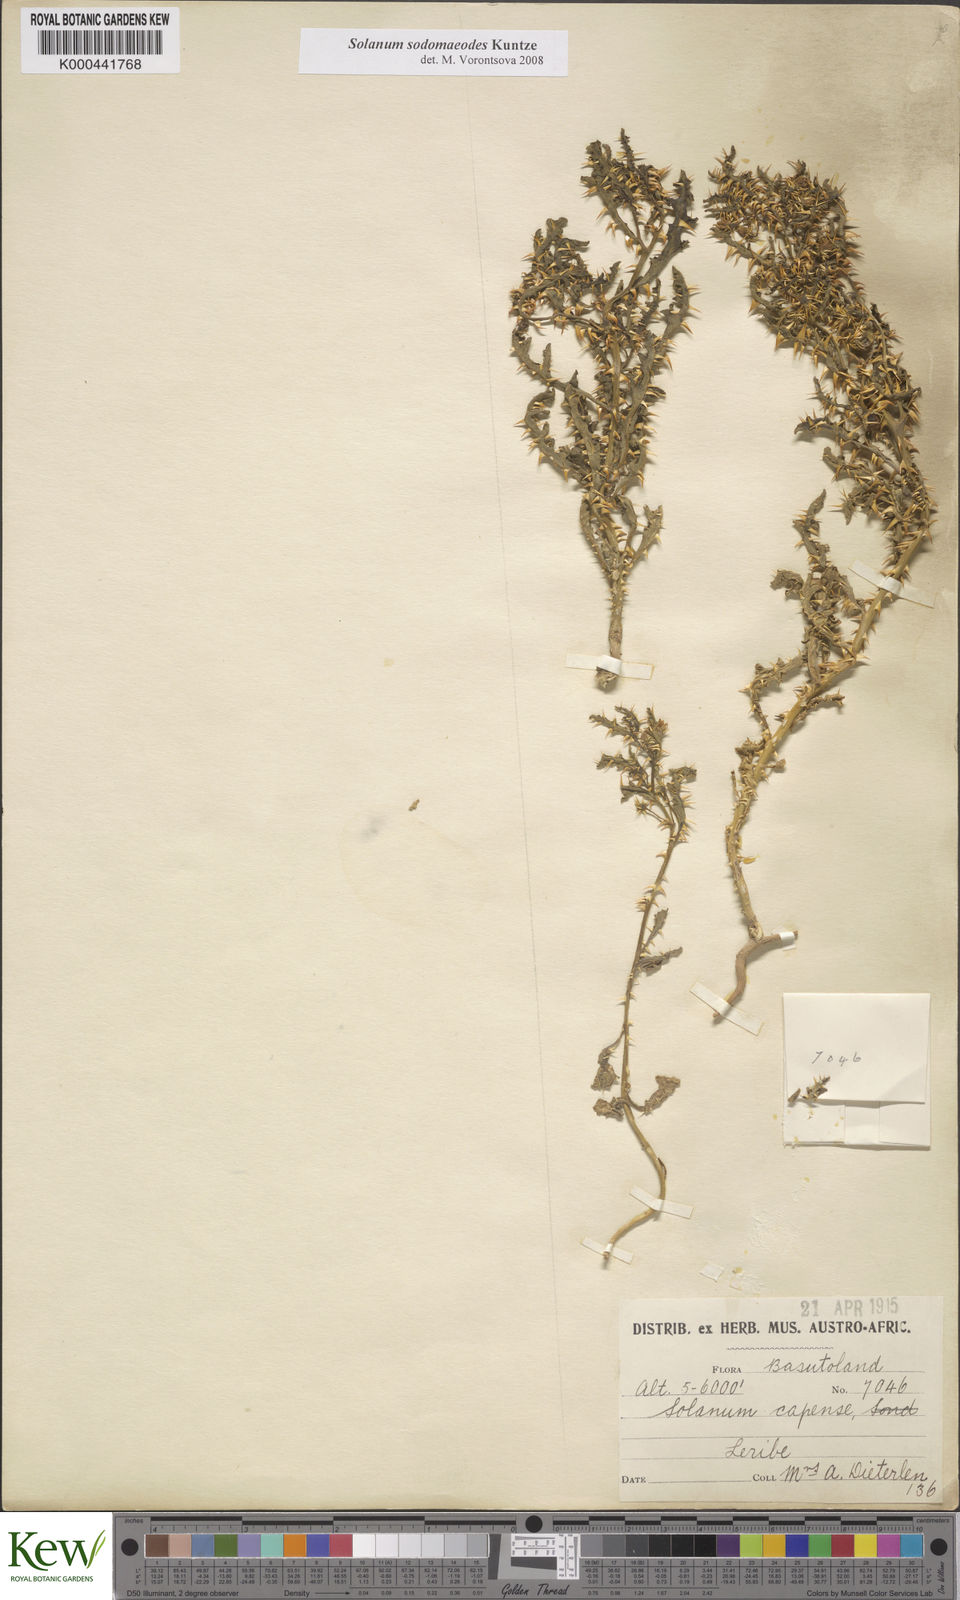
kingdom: Plantae
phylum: Tracheophyta
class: Magnoliopsida
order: Solanales
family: Solanaceae
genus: Solanum
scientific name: Solanum
